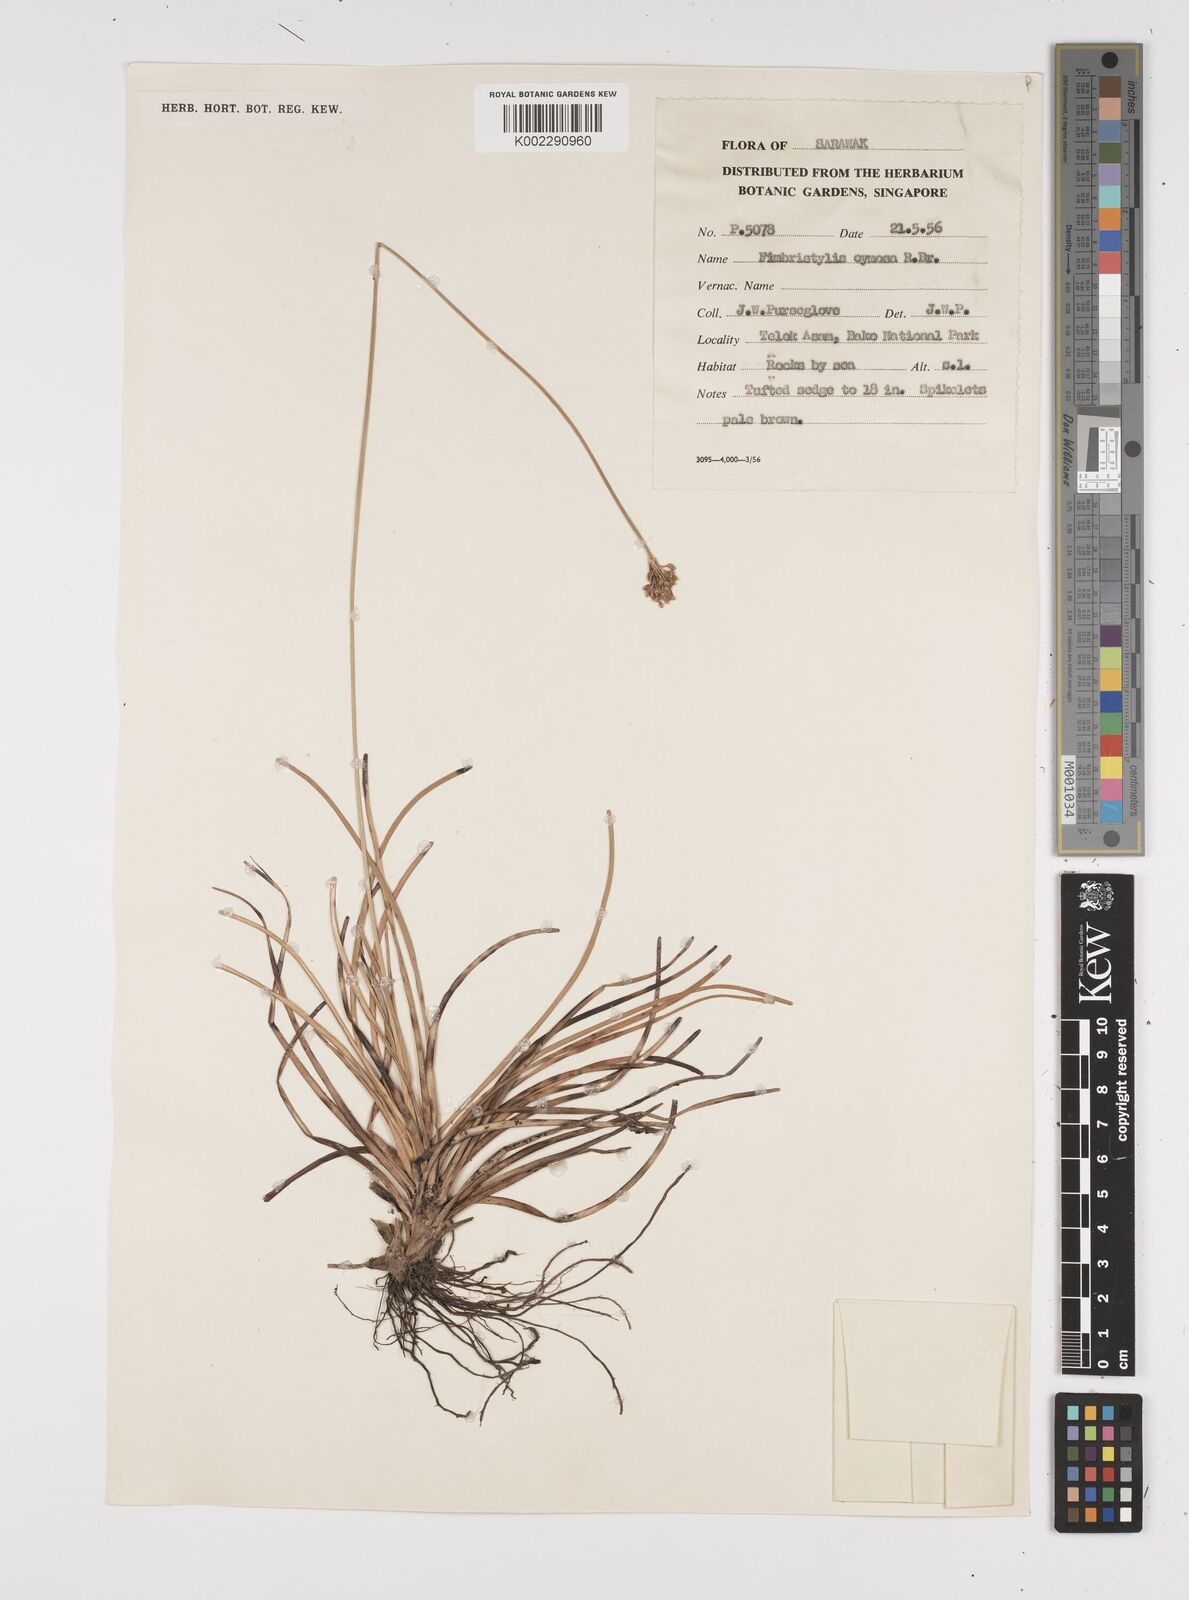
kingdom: Plantae
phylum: Tracheophyta
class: Liliopsida
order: Poales
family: Cyperaceae
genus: Fimbristylis
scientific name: Fimbristylis cymosa
